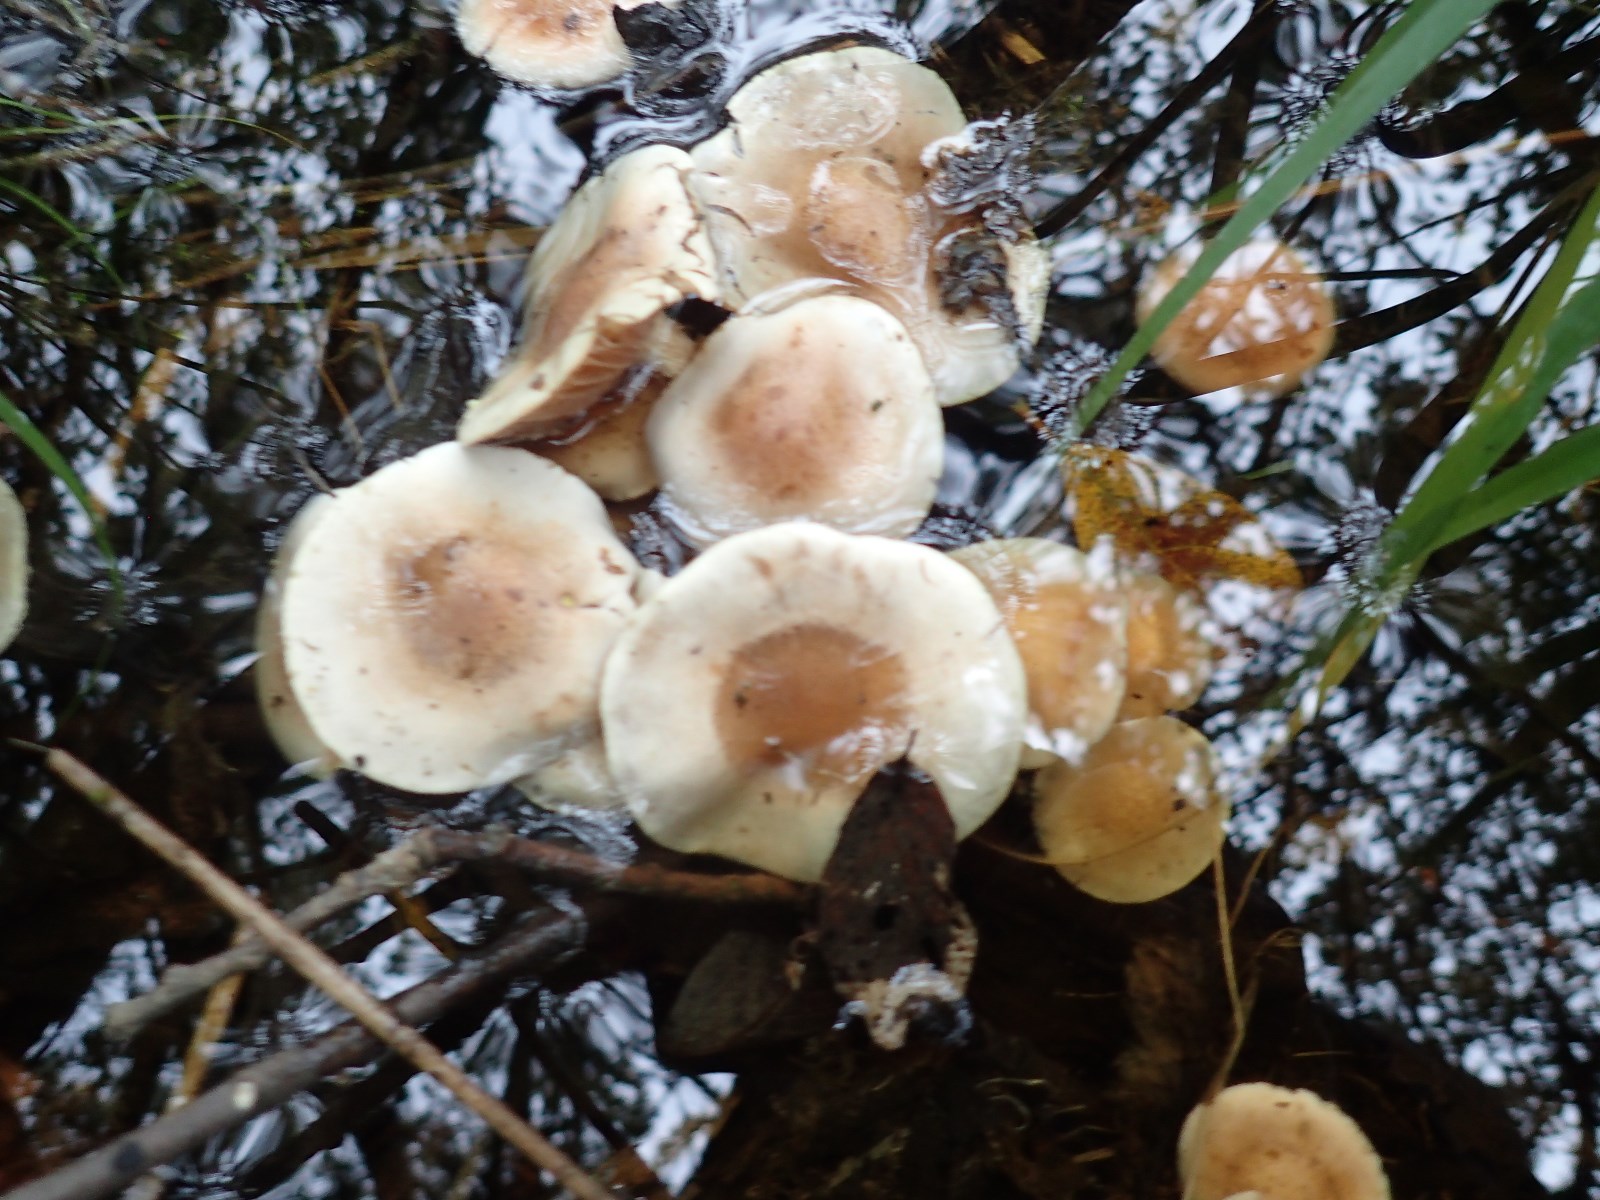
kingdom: Fungi
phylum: Basidiomycota
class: Agaricomycetes
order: Agaricales
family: Hymenogastraceae
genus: Hebeloma
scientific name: Hebeloma
